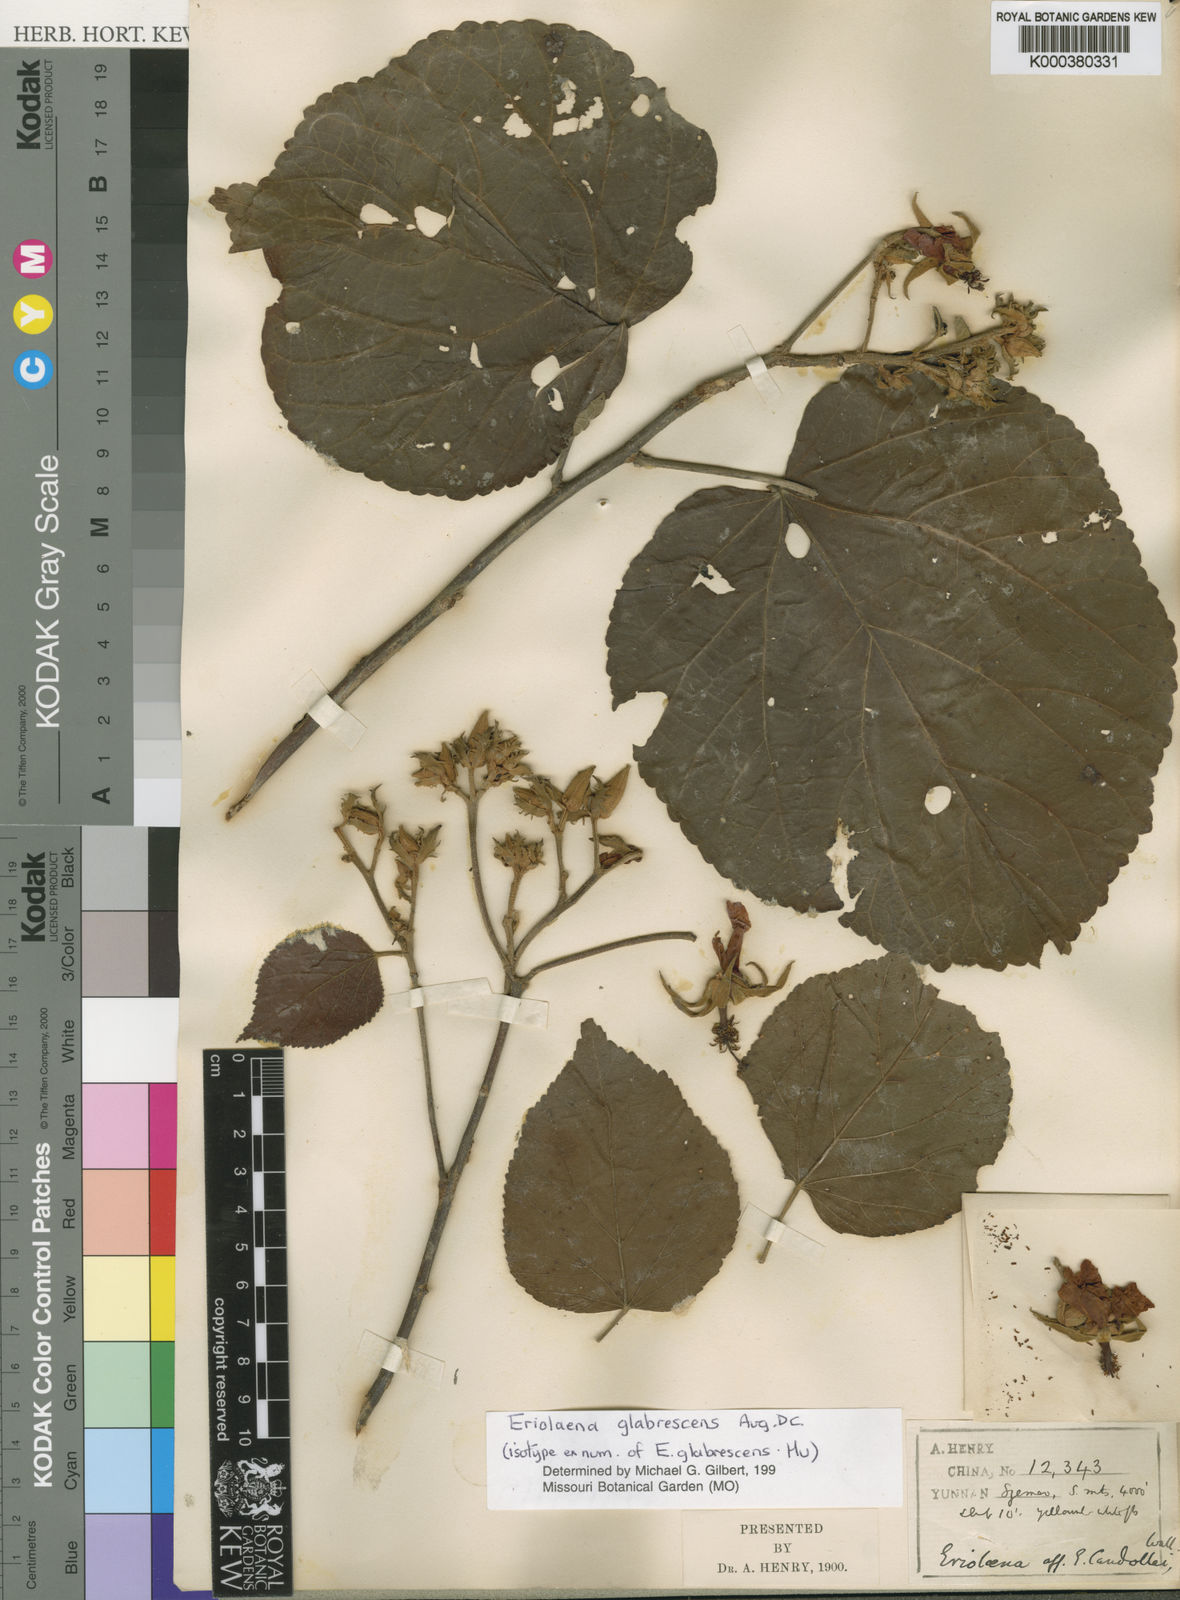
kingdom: Plantae
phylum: Tracheophyta
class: Magnoliopsida
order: Malvales
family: Malvaceae
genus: Eriolaena
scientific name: Eriolaena candollei
